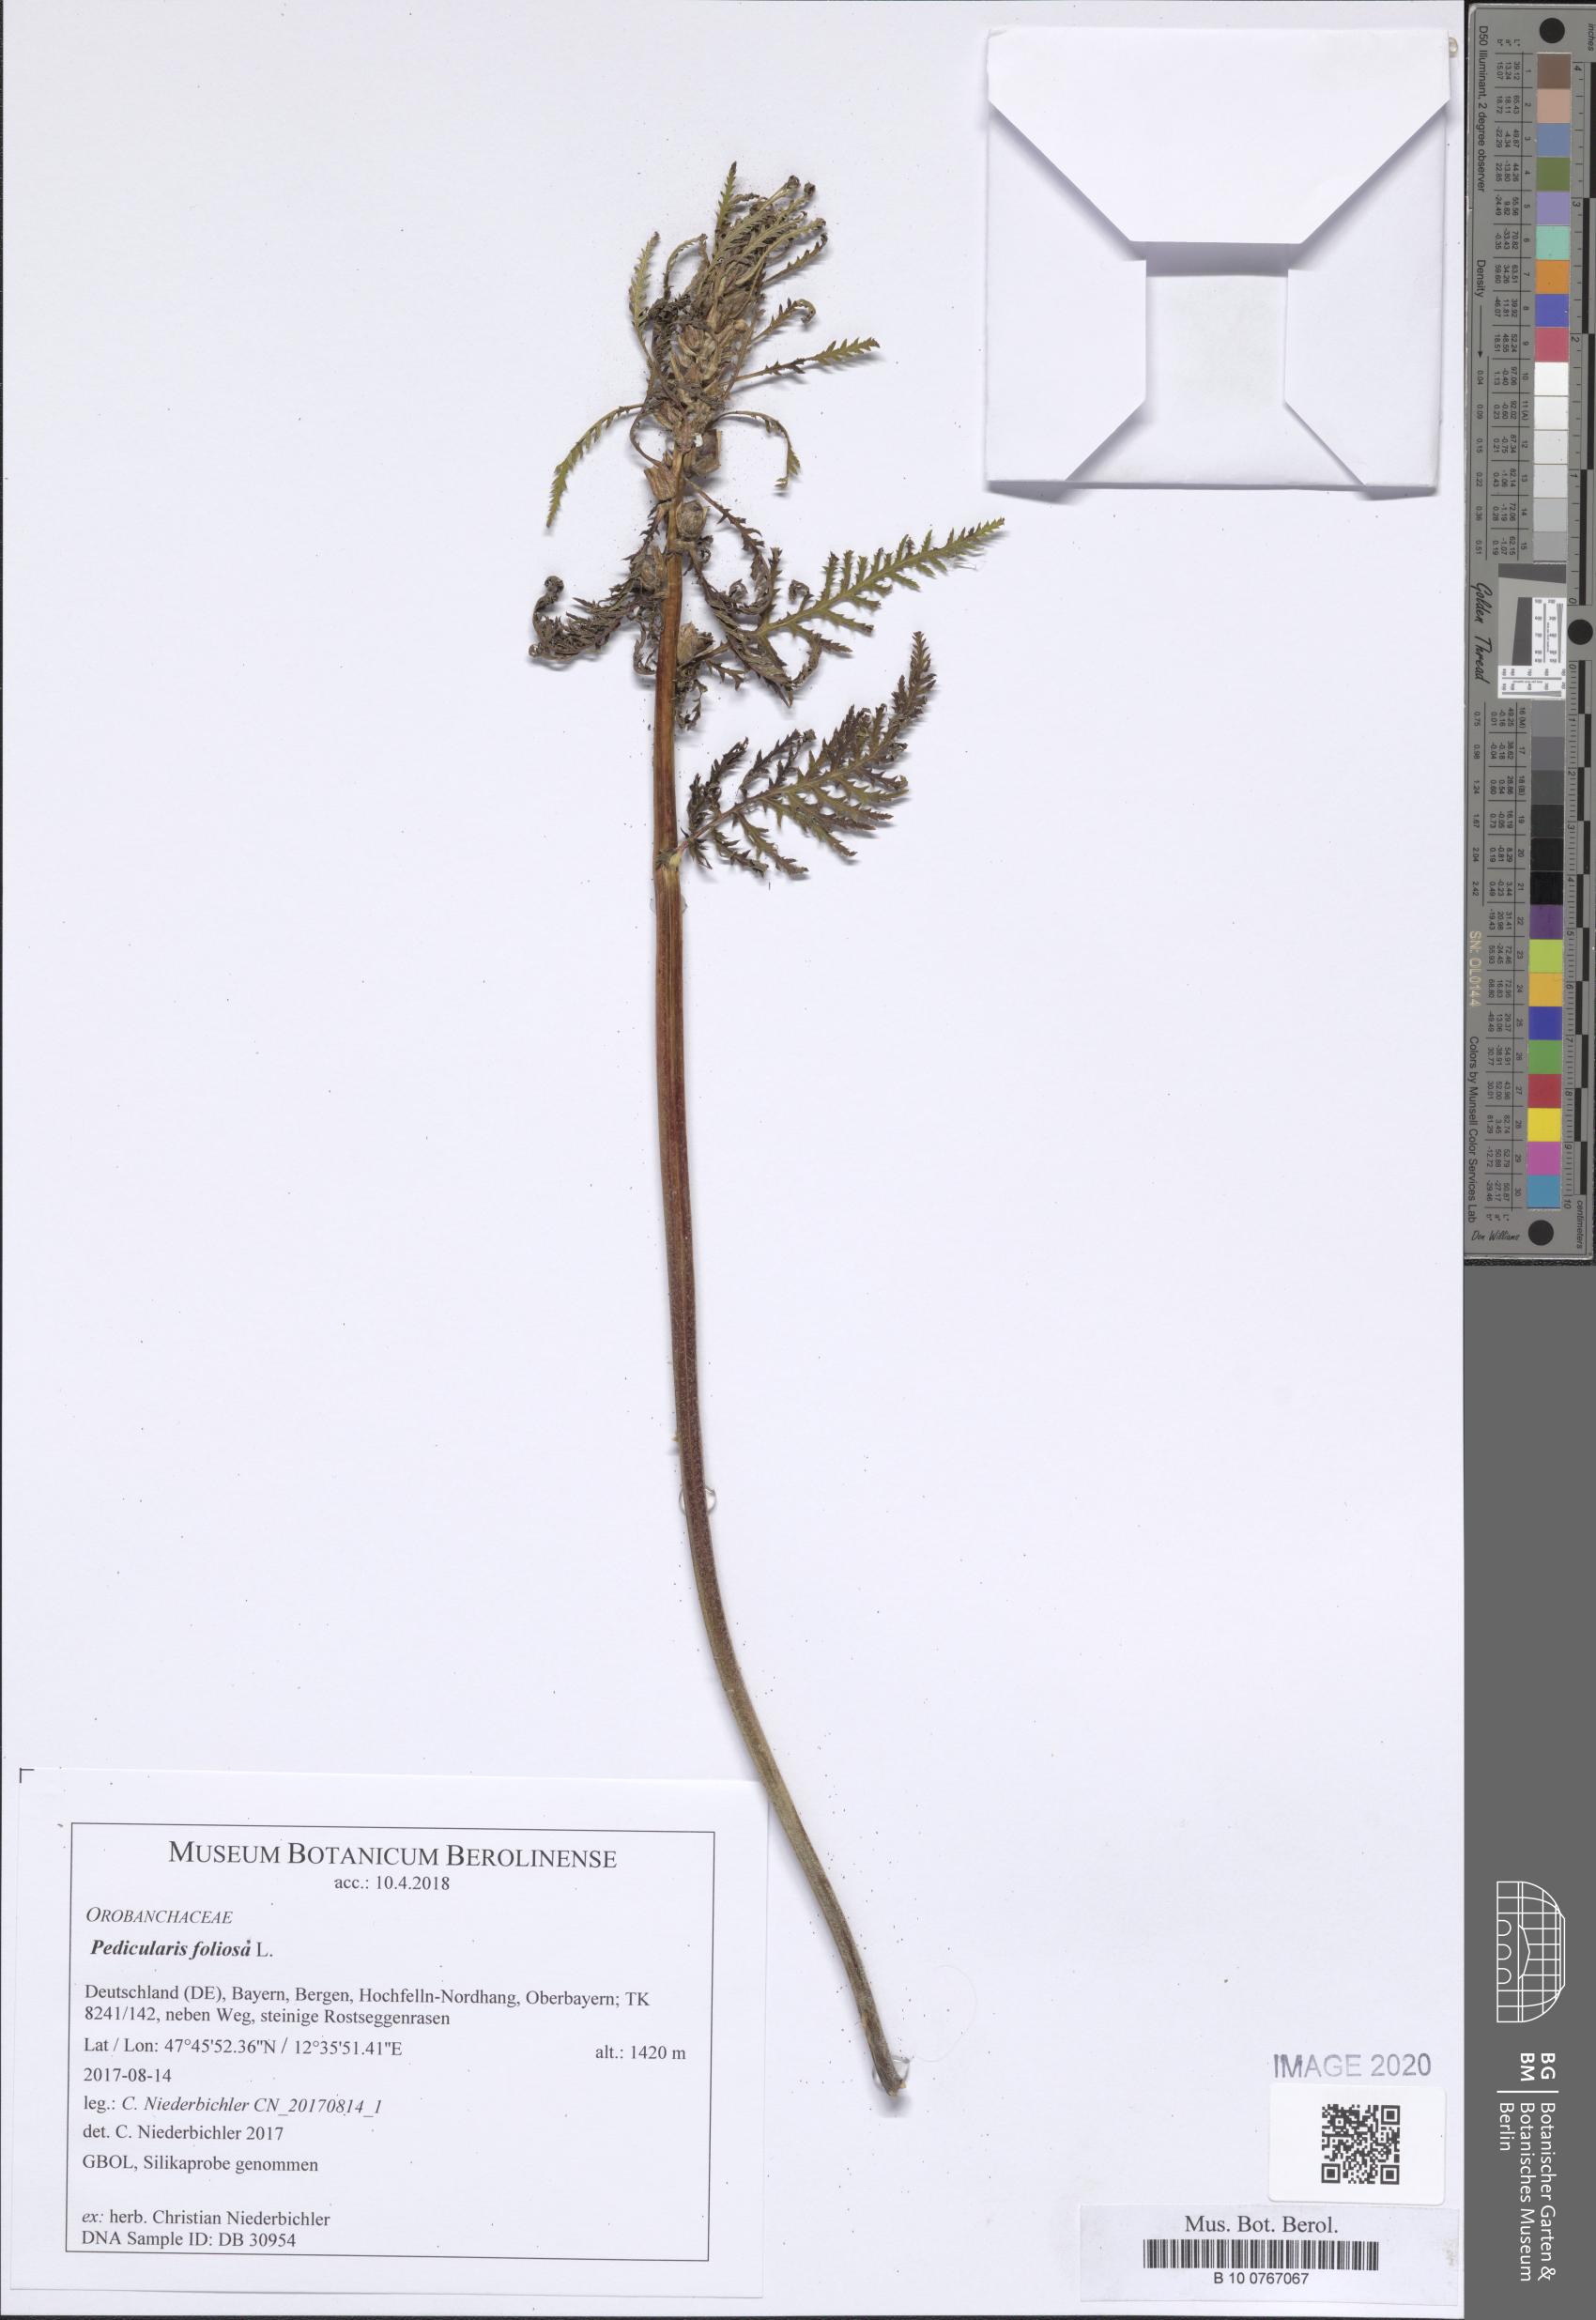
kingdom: Plantae
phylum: Tracheophyta
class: Magnoliopsida
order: Lamiales
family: Orobanchaceae
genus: Pedicularis
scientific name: Pedicularis foliosa
